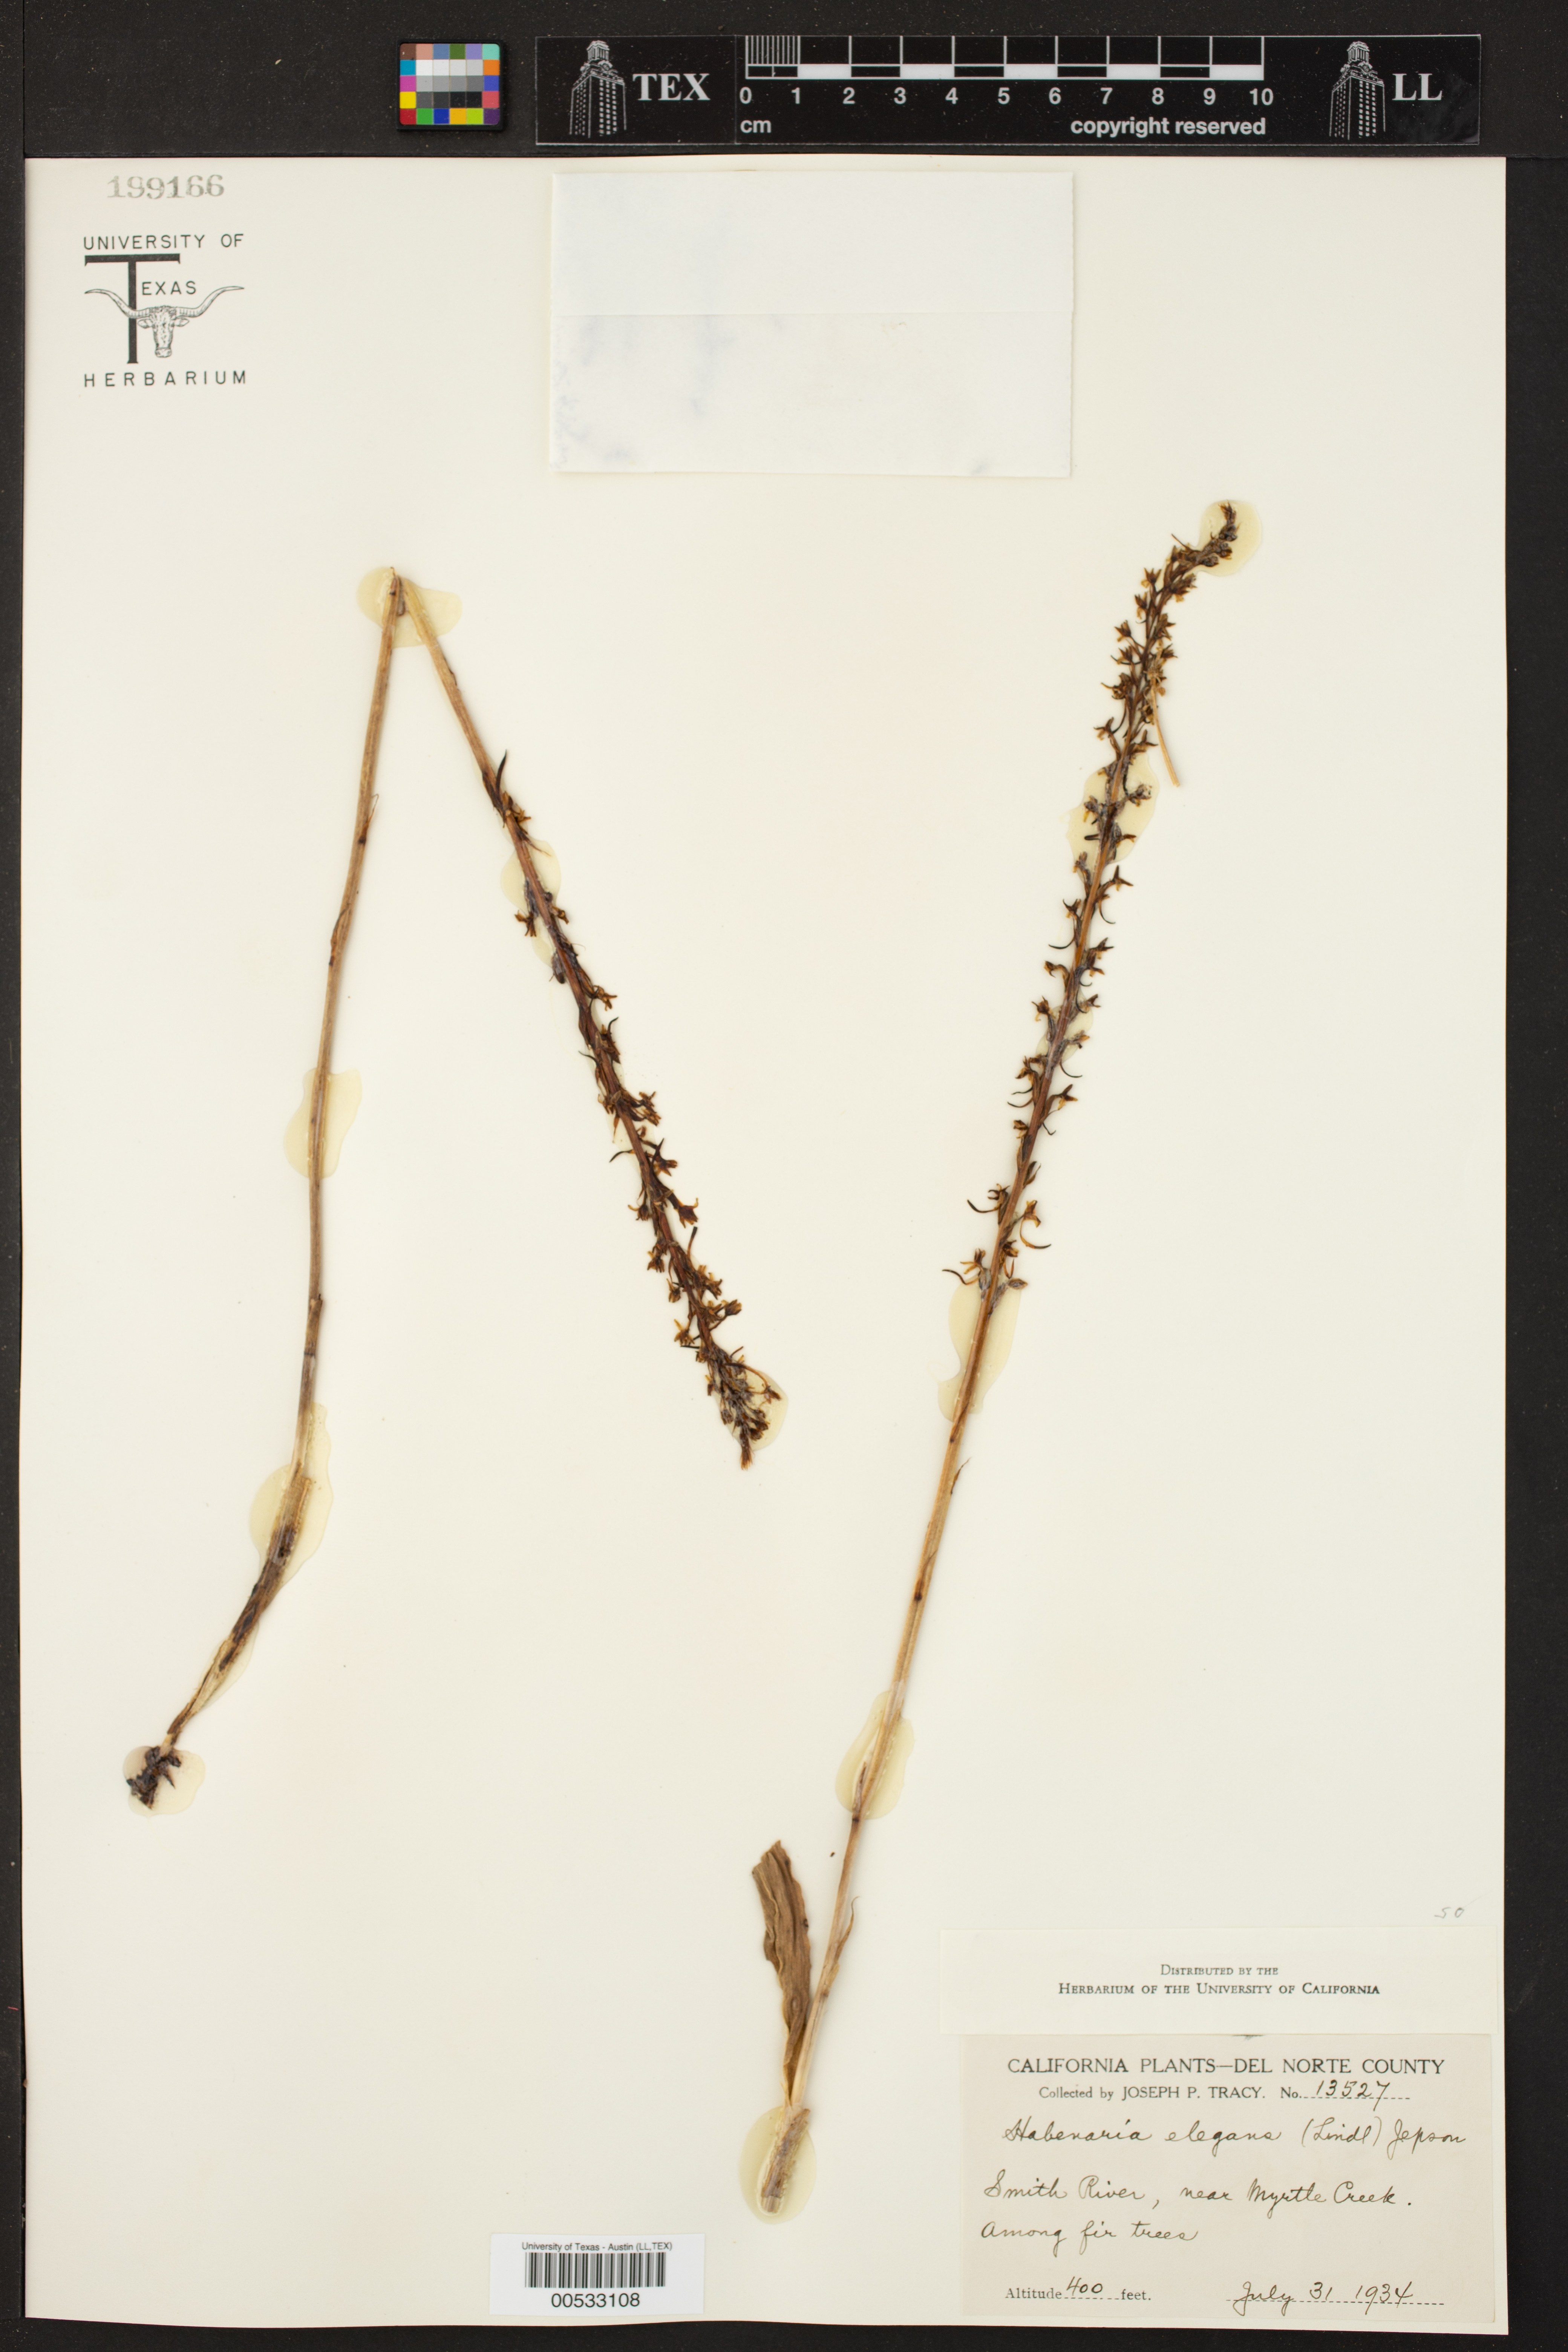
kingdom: Plantae
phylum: Tracheophyta
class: Liliopsida
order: Asparagales
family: Orchidaceae
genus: Habenaria
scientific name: Habenaria elegans
